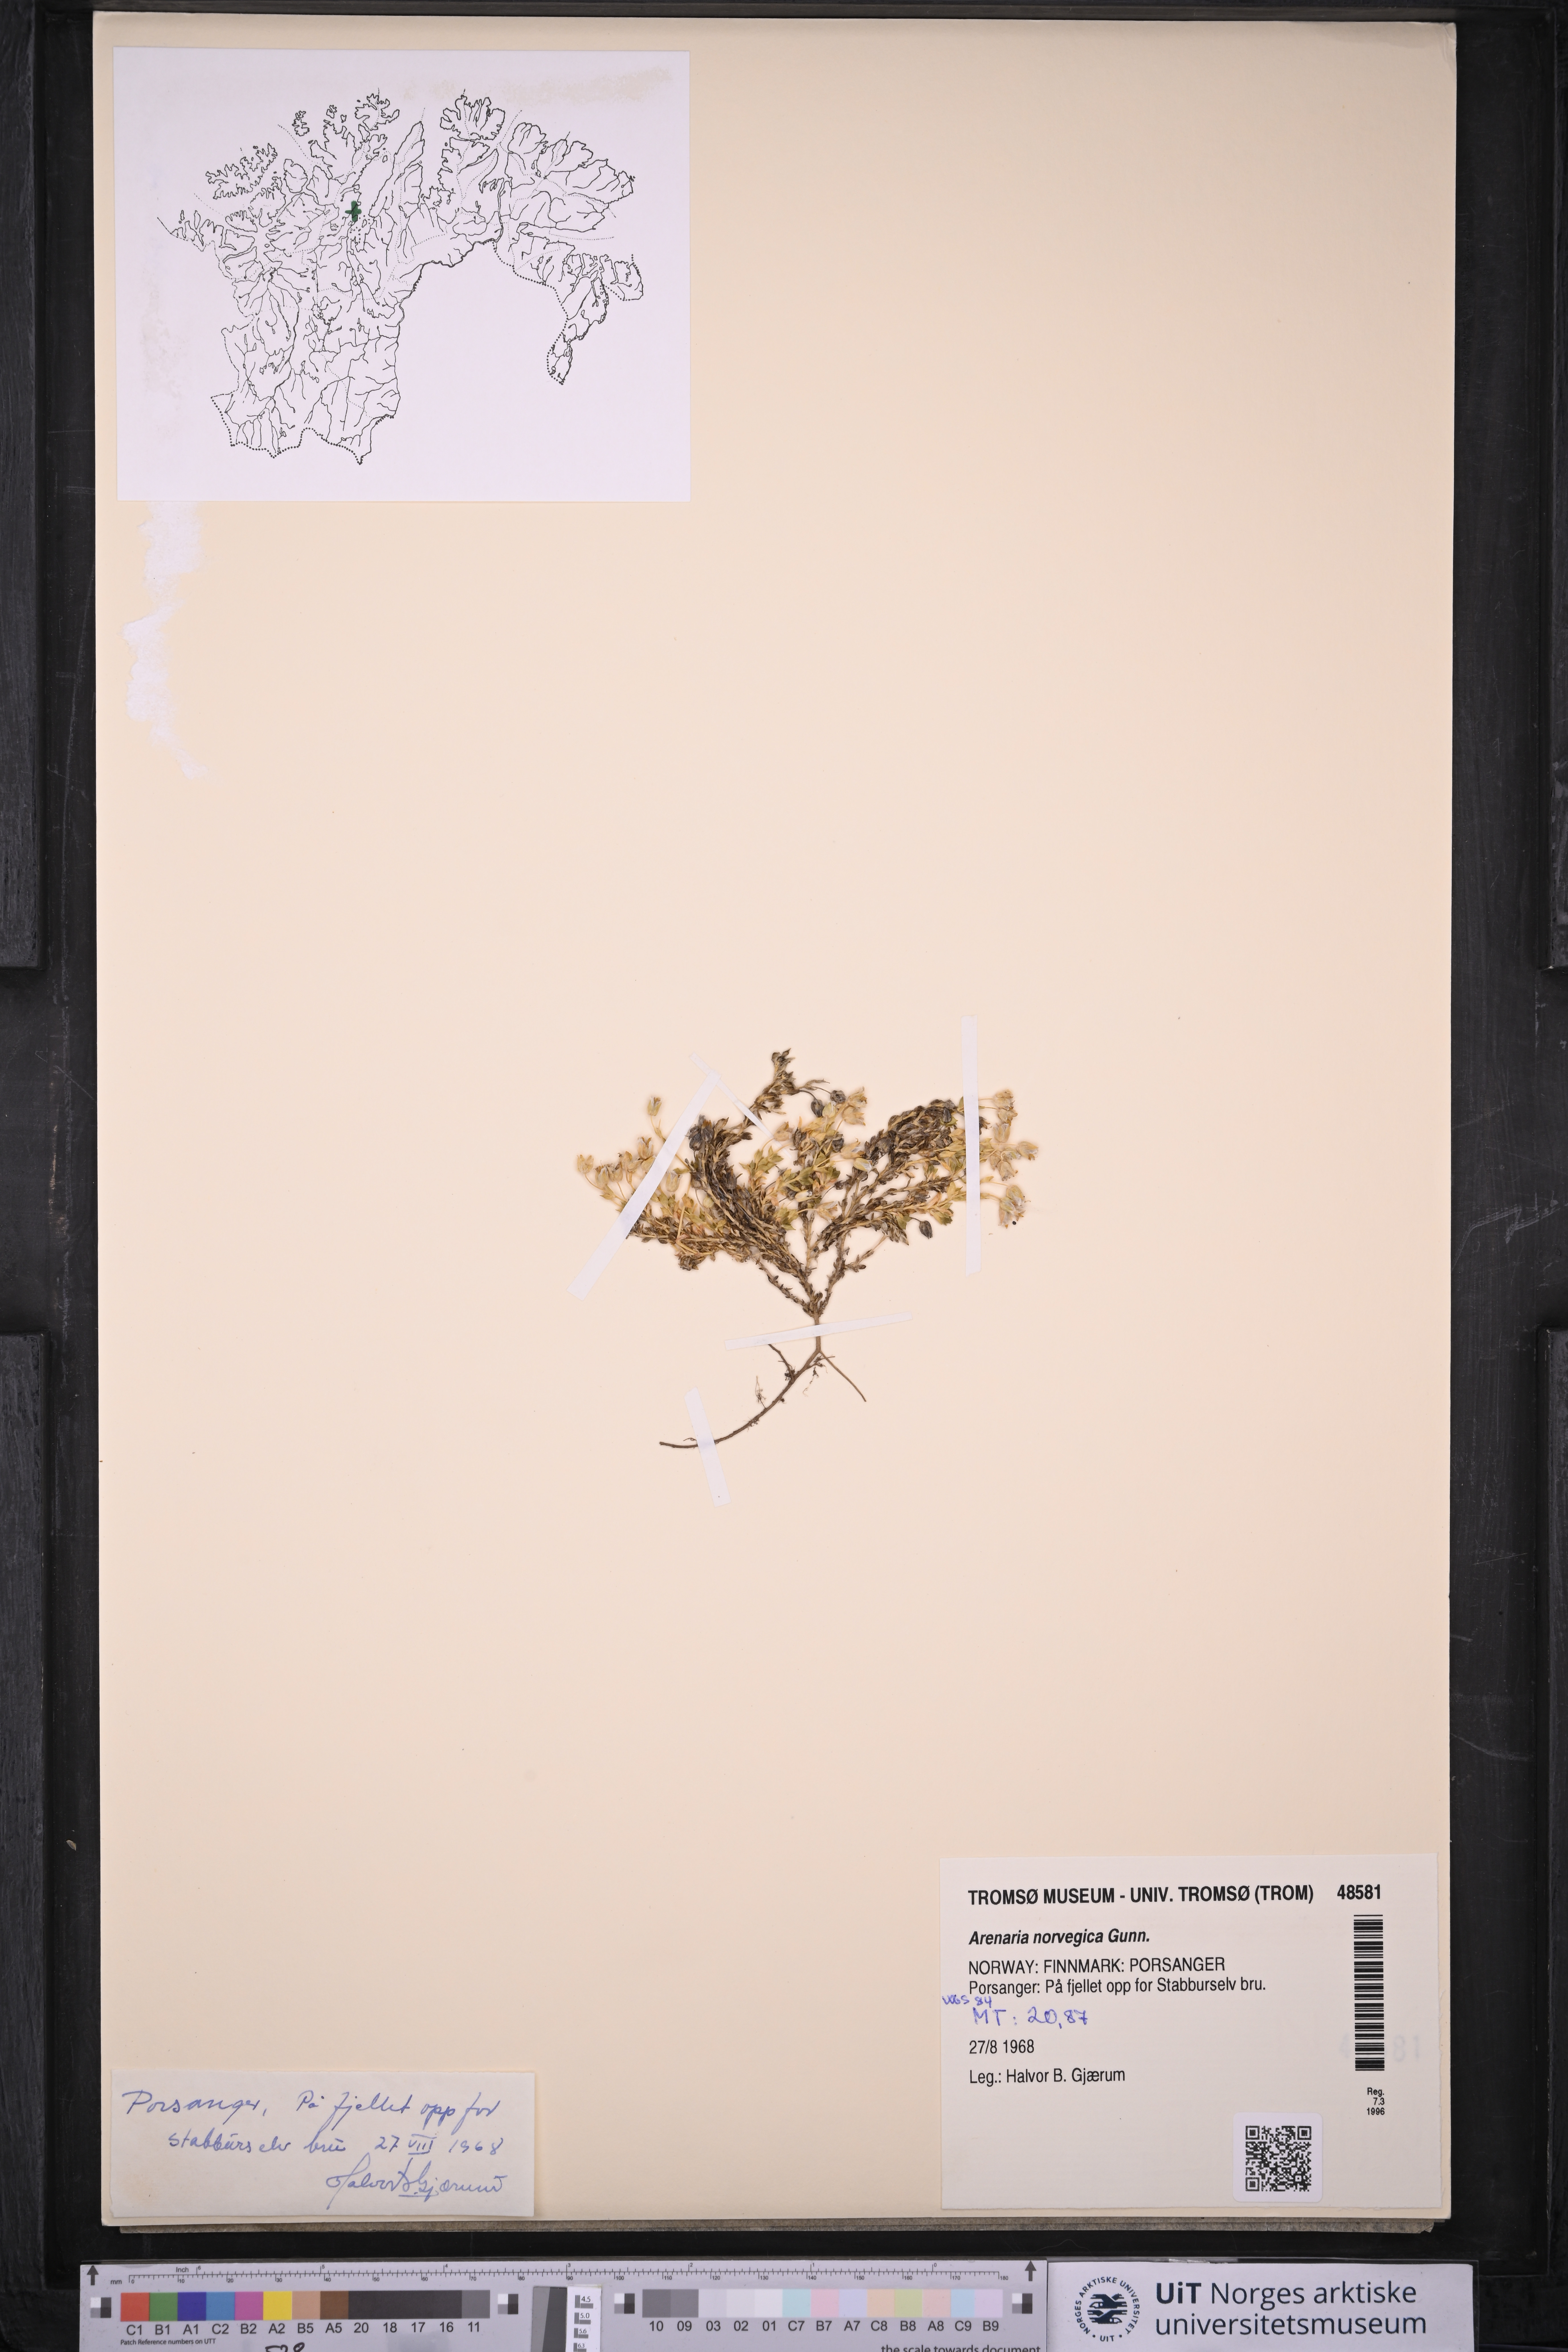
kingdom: Plantae
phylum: Tracheophyta
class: Magnoliopsida
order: Caryophyllales
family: Caryophyllaceae
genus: Arenaria
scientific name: Arenaria norvegica
